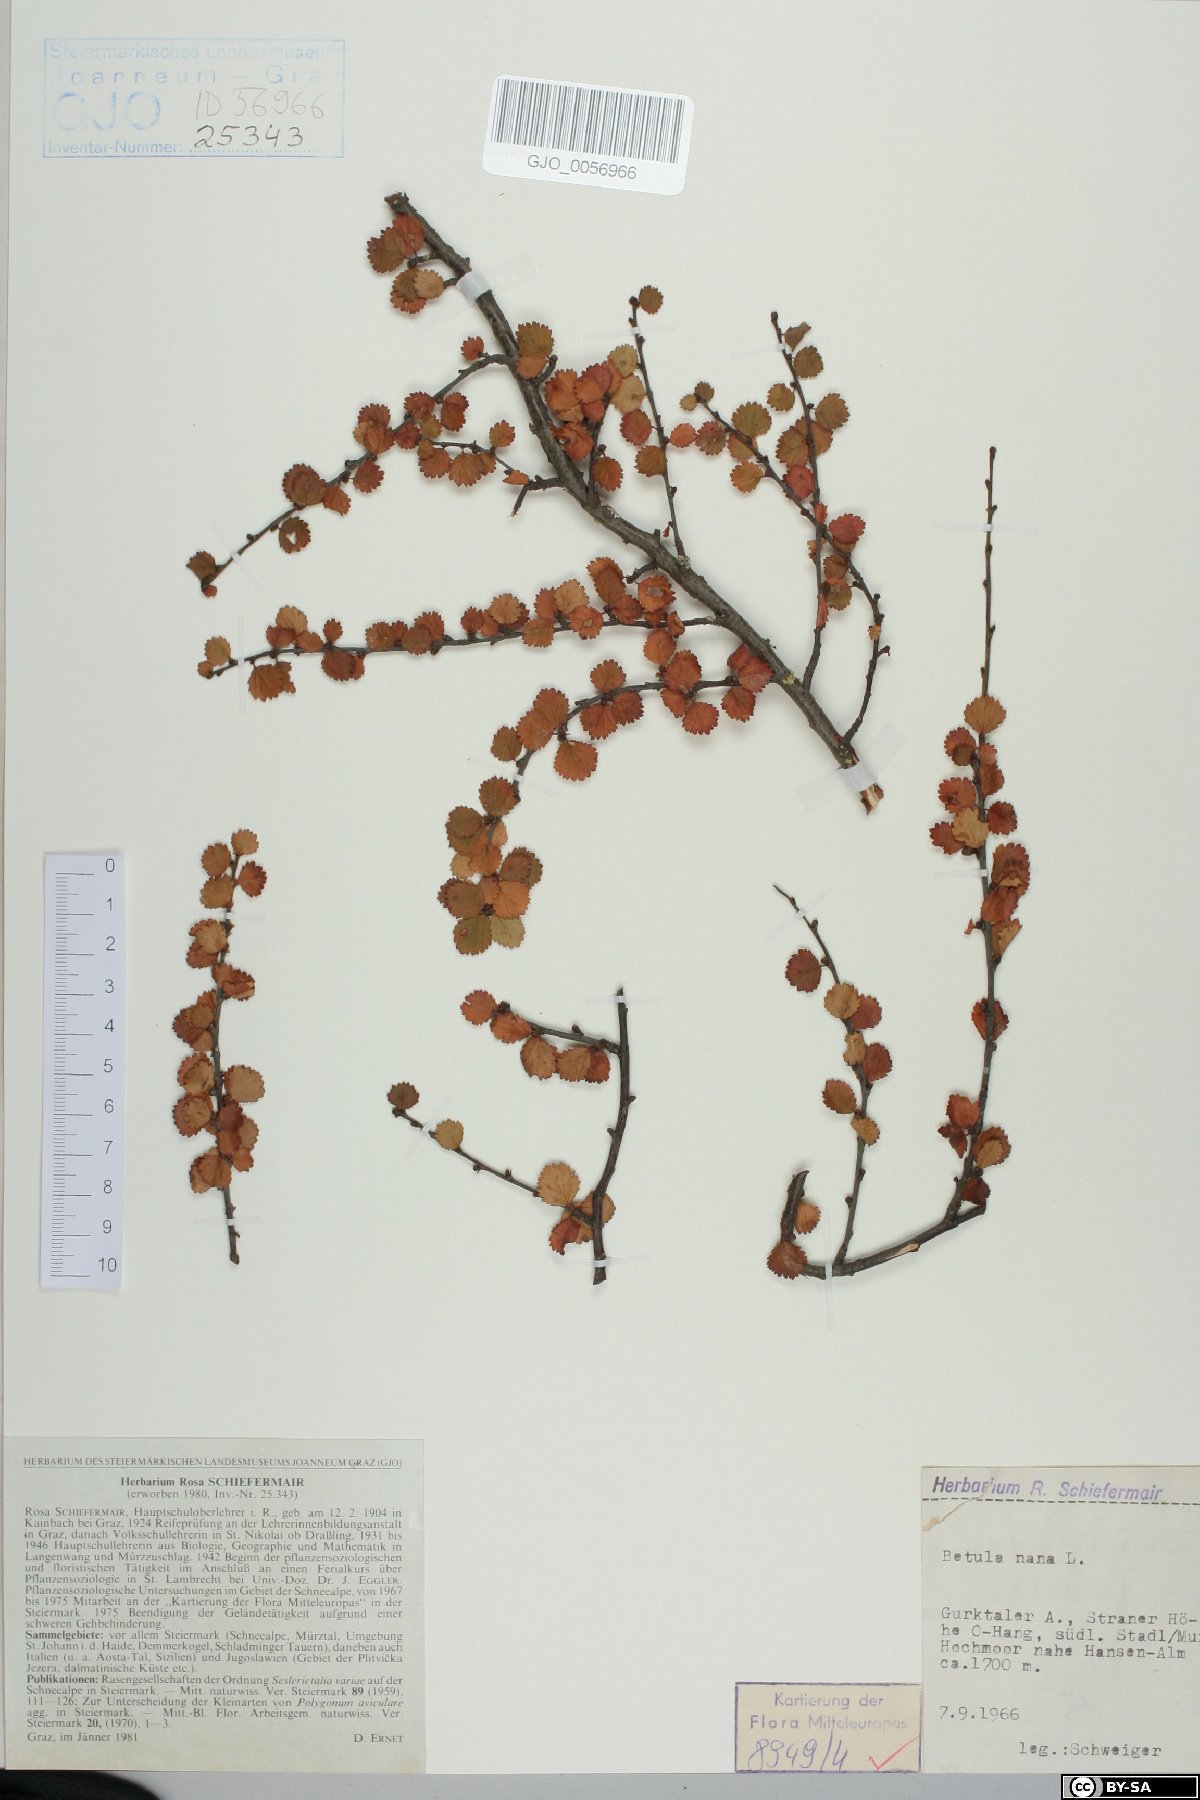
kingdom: Plantae
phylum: Tracheophyta
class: Magnoliopsida
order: Fagales
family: Betulaceae
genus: Betula
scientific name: Betula nana
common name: Arctic dwarf birch
